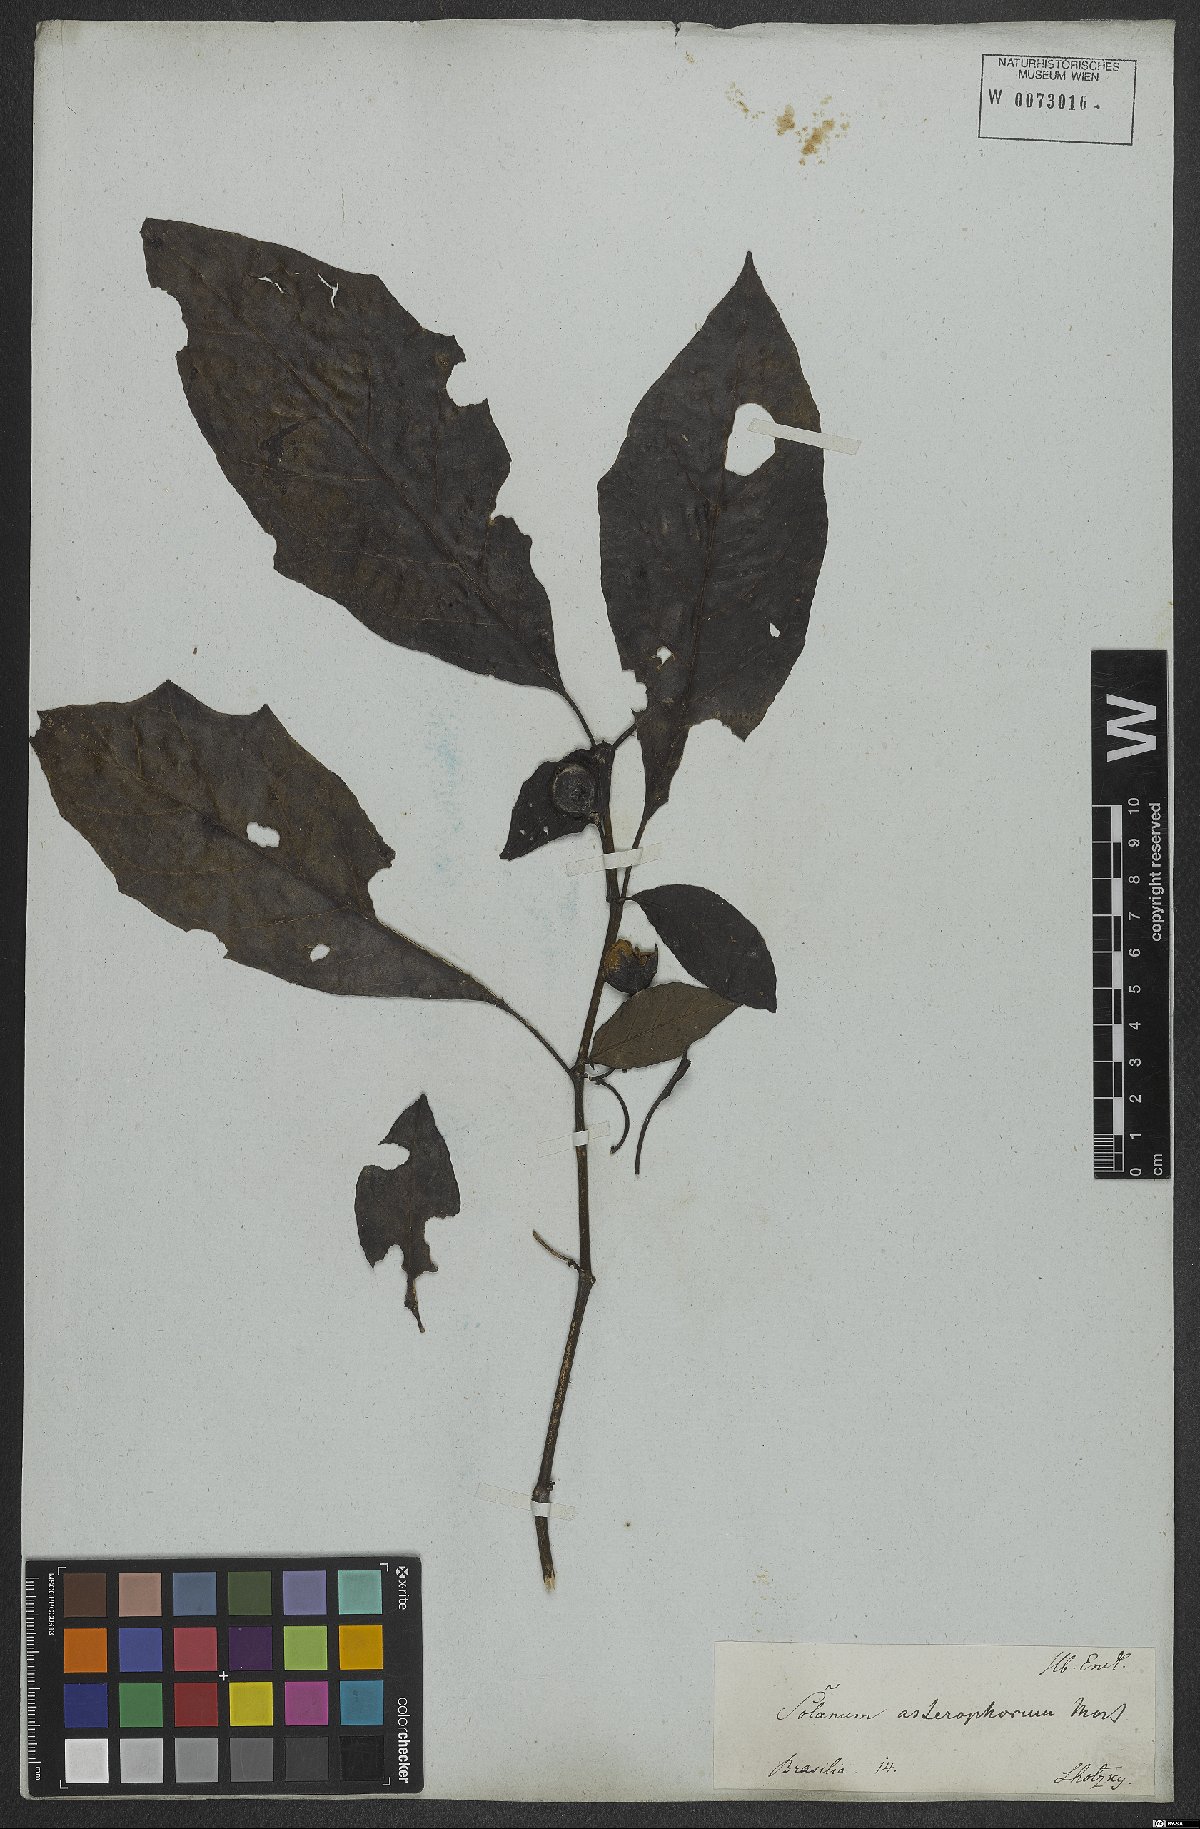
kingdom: Plantae
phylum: Tracheophyta
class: Magnoliopsida
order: Solanales
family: Solanaceae
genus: Solanum
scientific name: Solanum asterophorum
